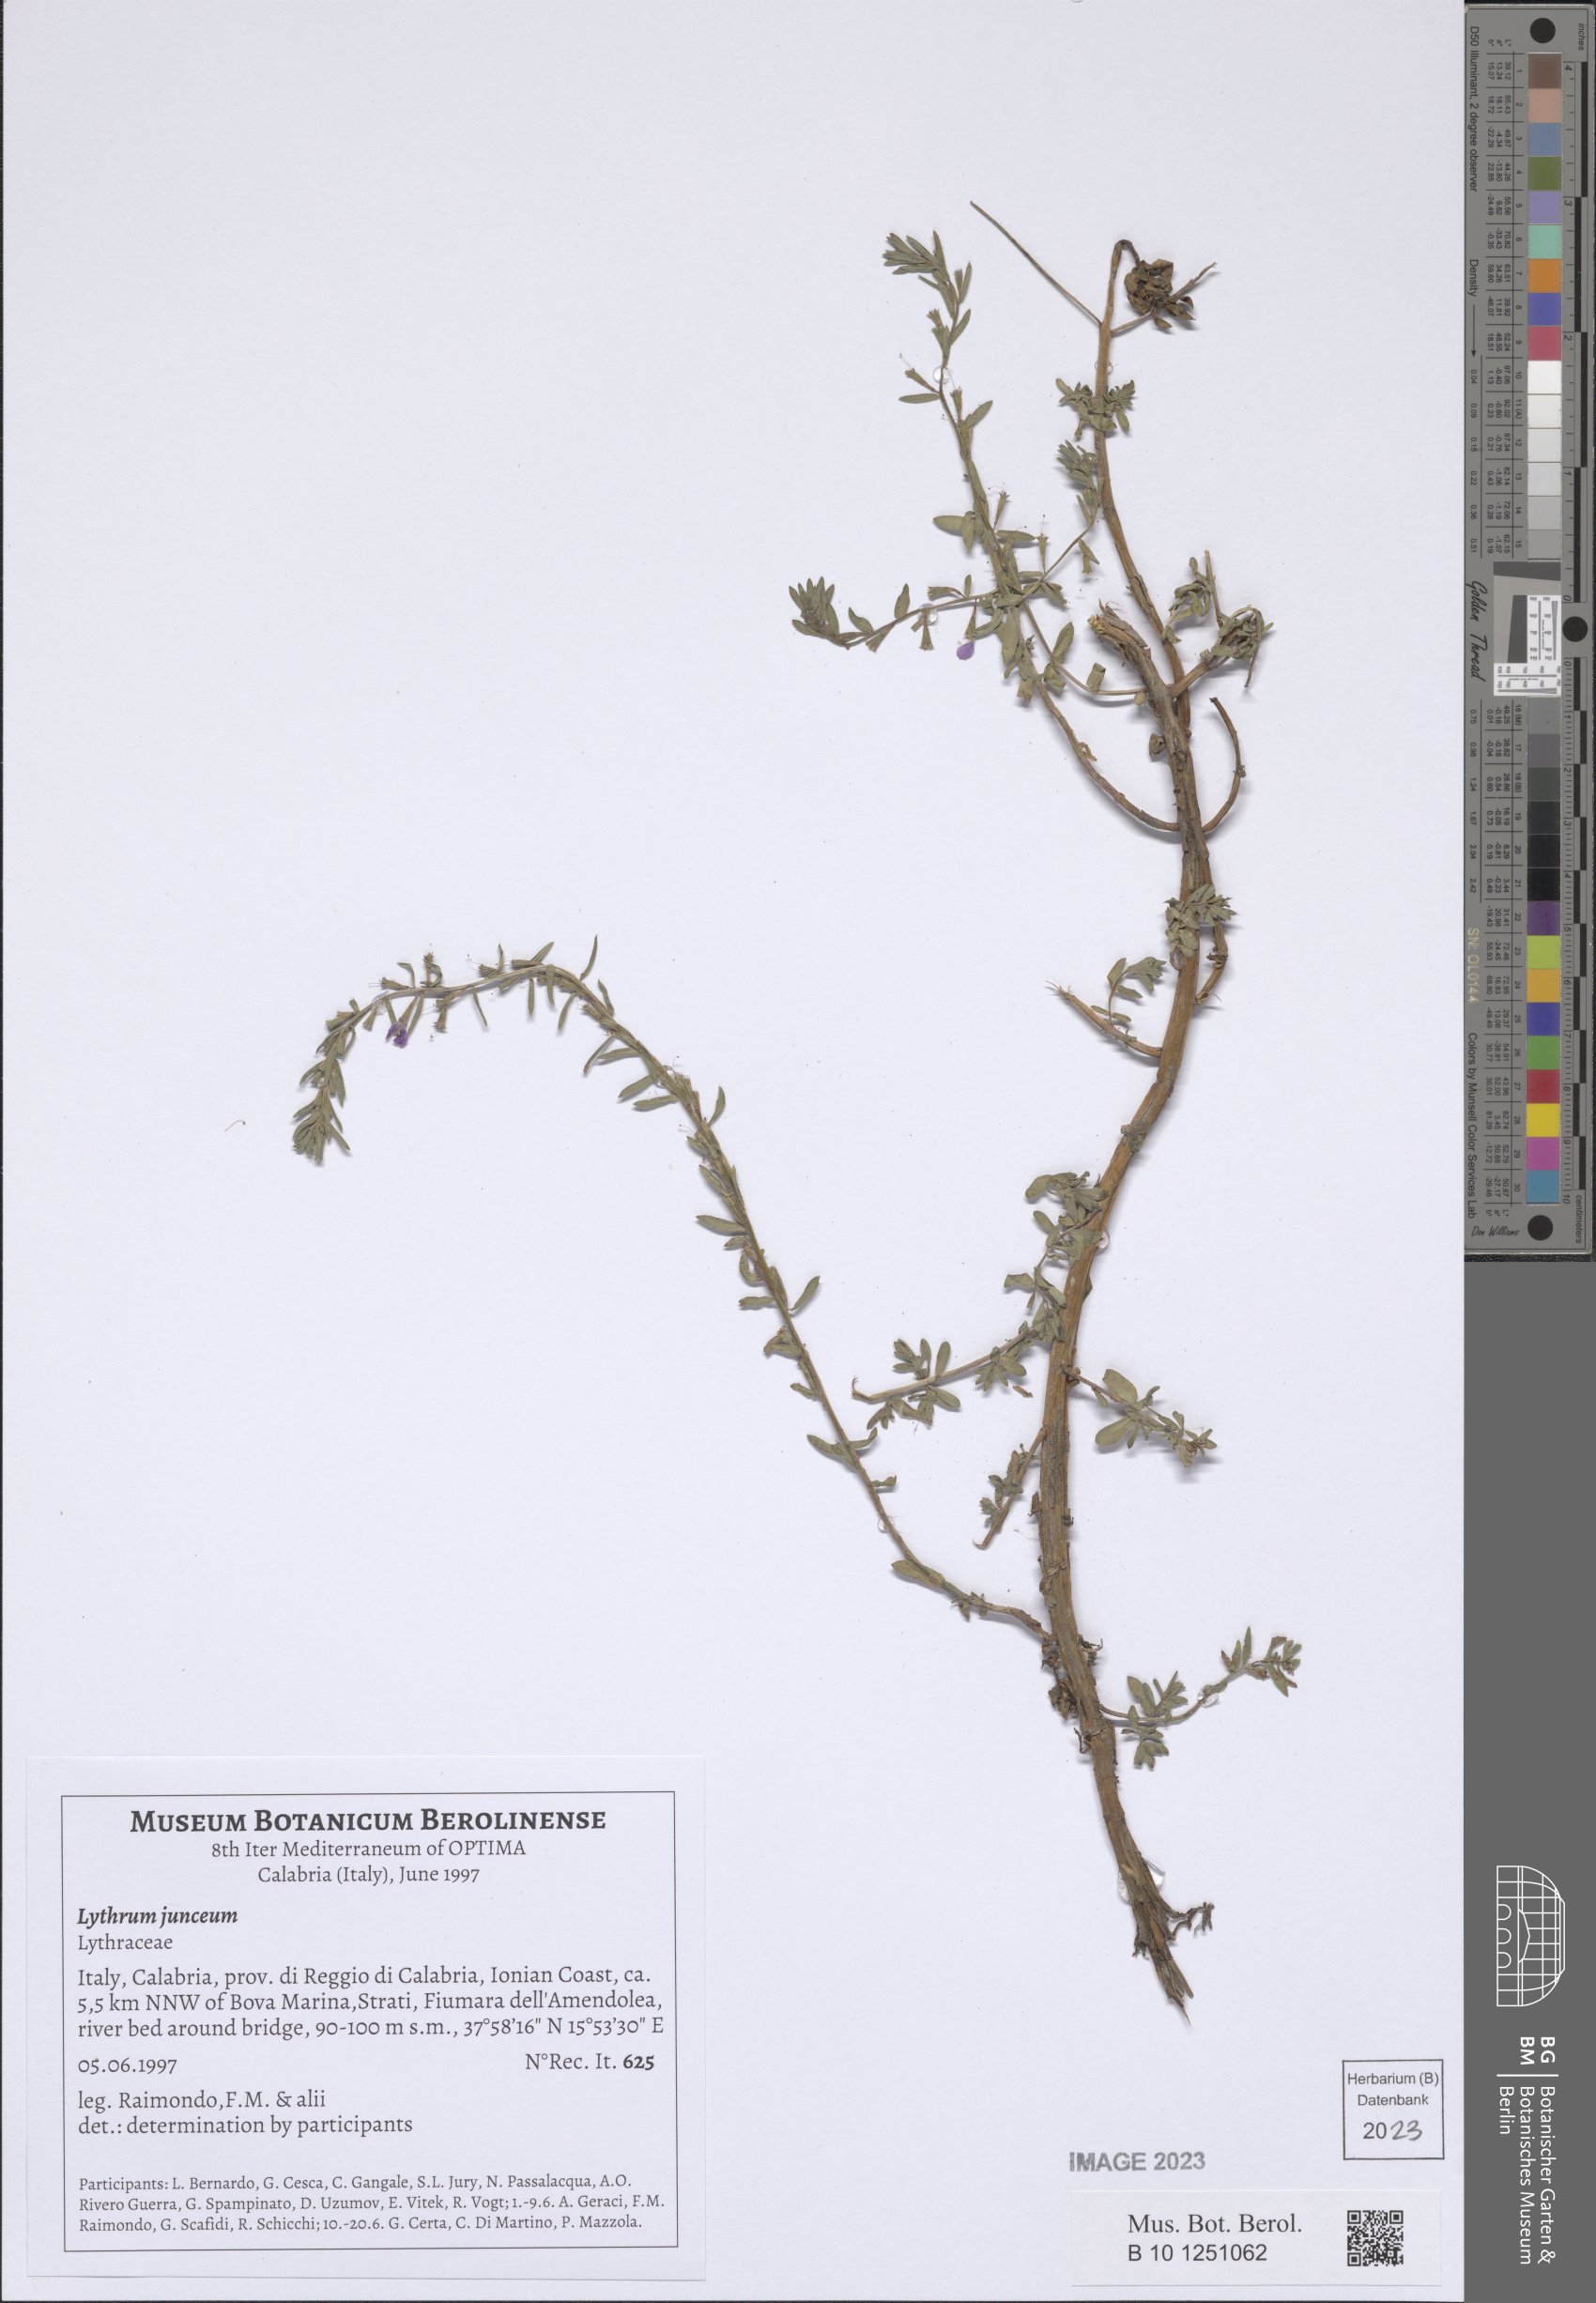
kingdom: Plantae
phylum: Tracheophyta
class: Magnoliopsida
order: Myrtales
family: Lythraceae
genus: Lythrum
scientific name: Lythrum junceum
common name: False grass-poly
